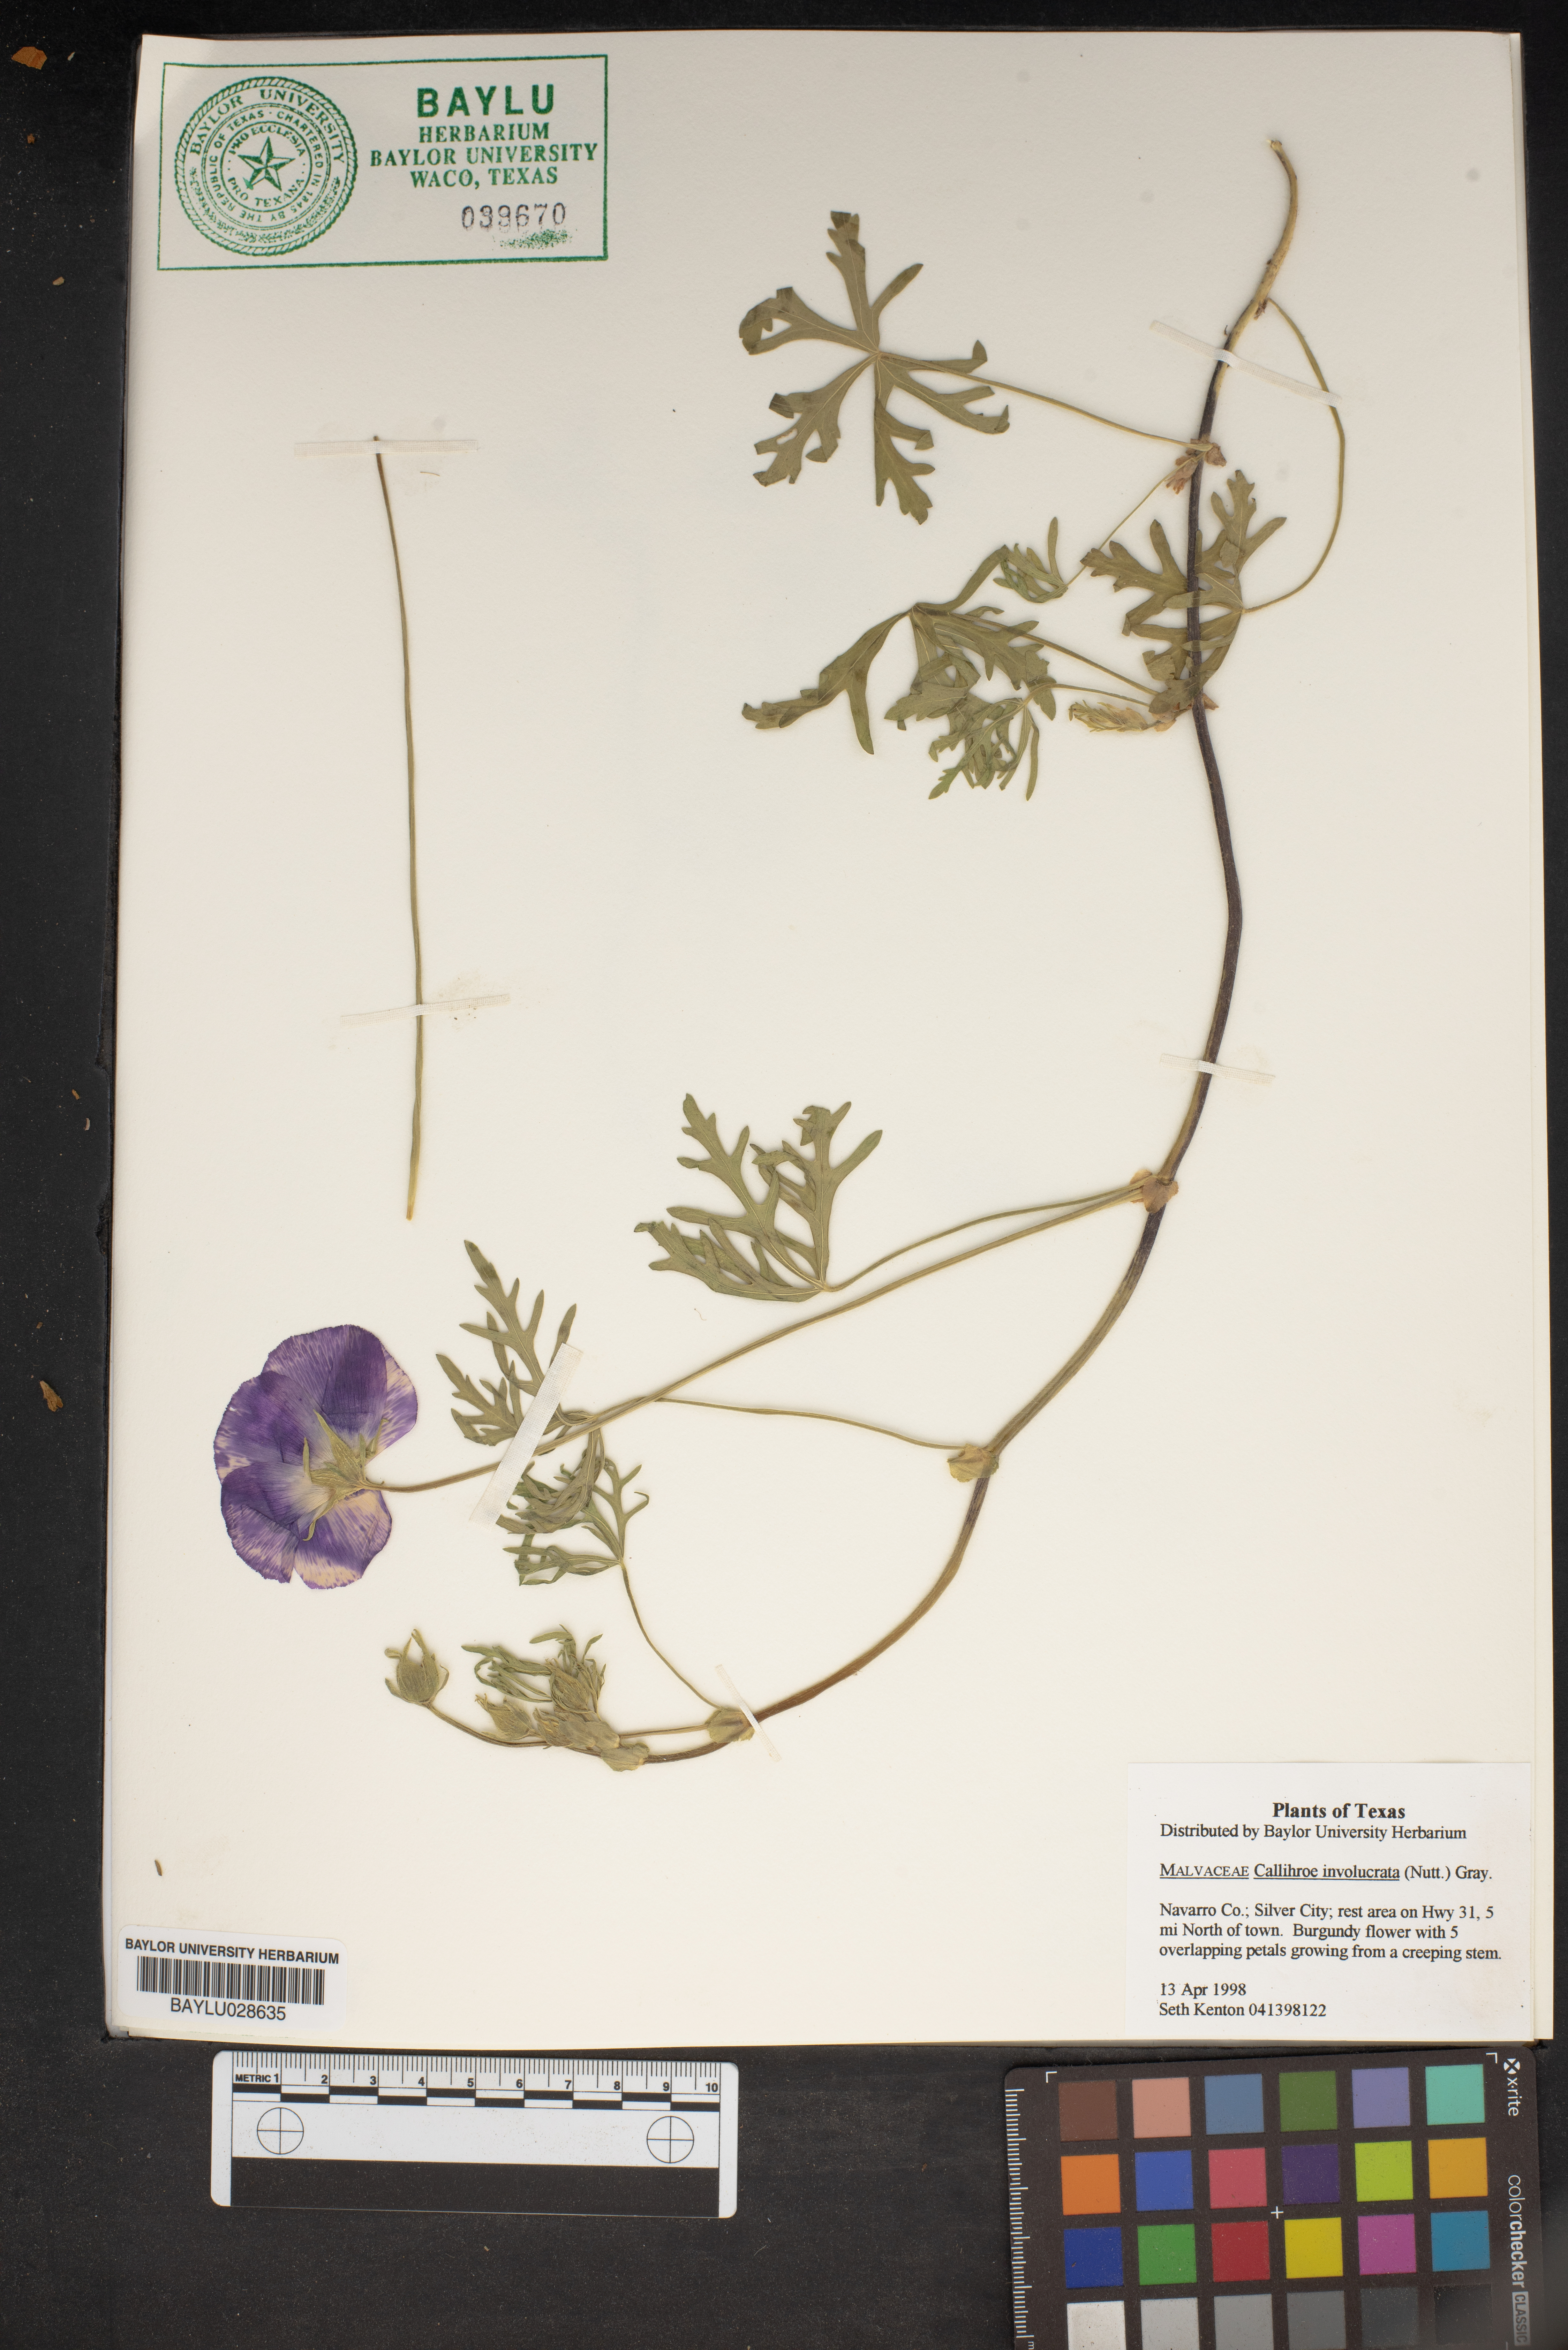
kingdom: Plantae
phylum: Tracheophyta
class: Magnoliopsida
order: Malvales
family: Malvaceae
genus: Callirhoe
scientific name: Callirhoe involucrata
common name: Purple poppy-mallow
